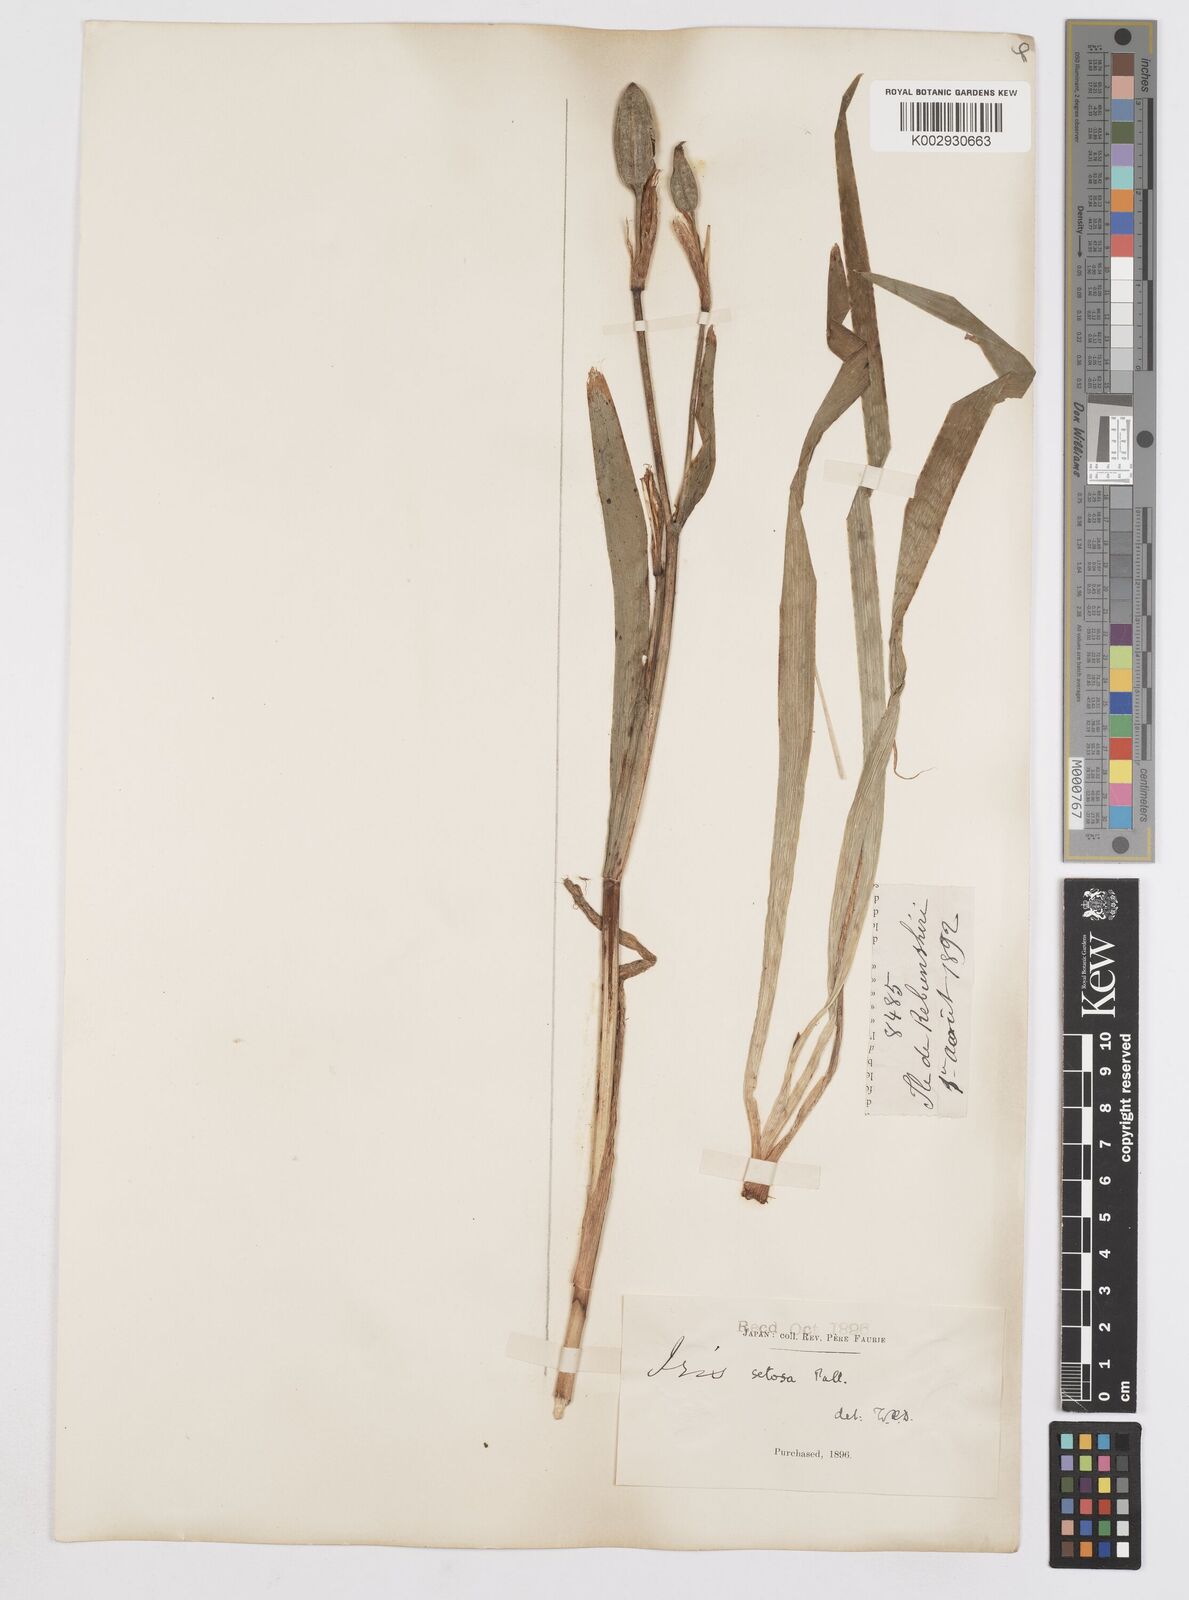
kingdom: Plantae
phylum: Tracheophyta
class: Liliopsida
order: Asparagales
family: Iridaceae
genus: Iris
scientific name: Iris setosa
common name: Arctic blue flag
